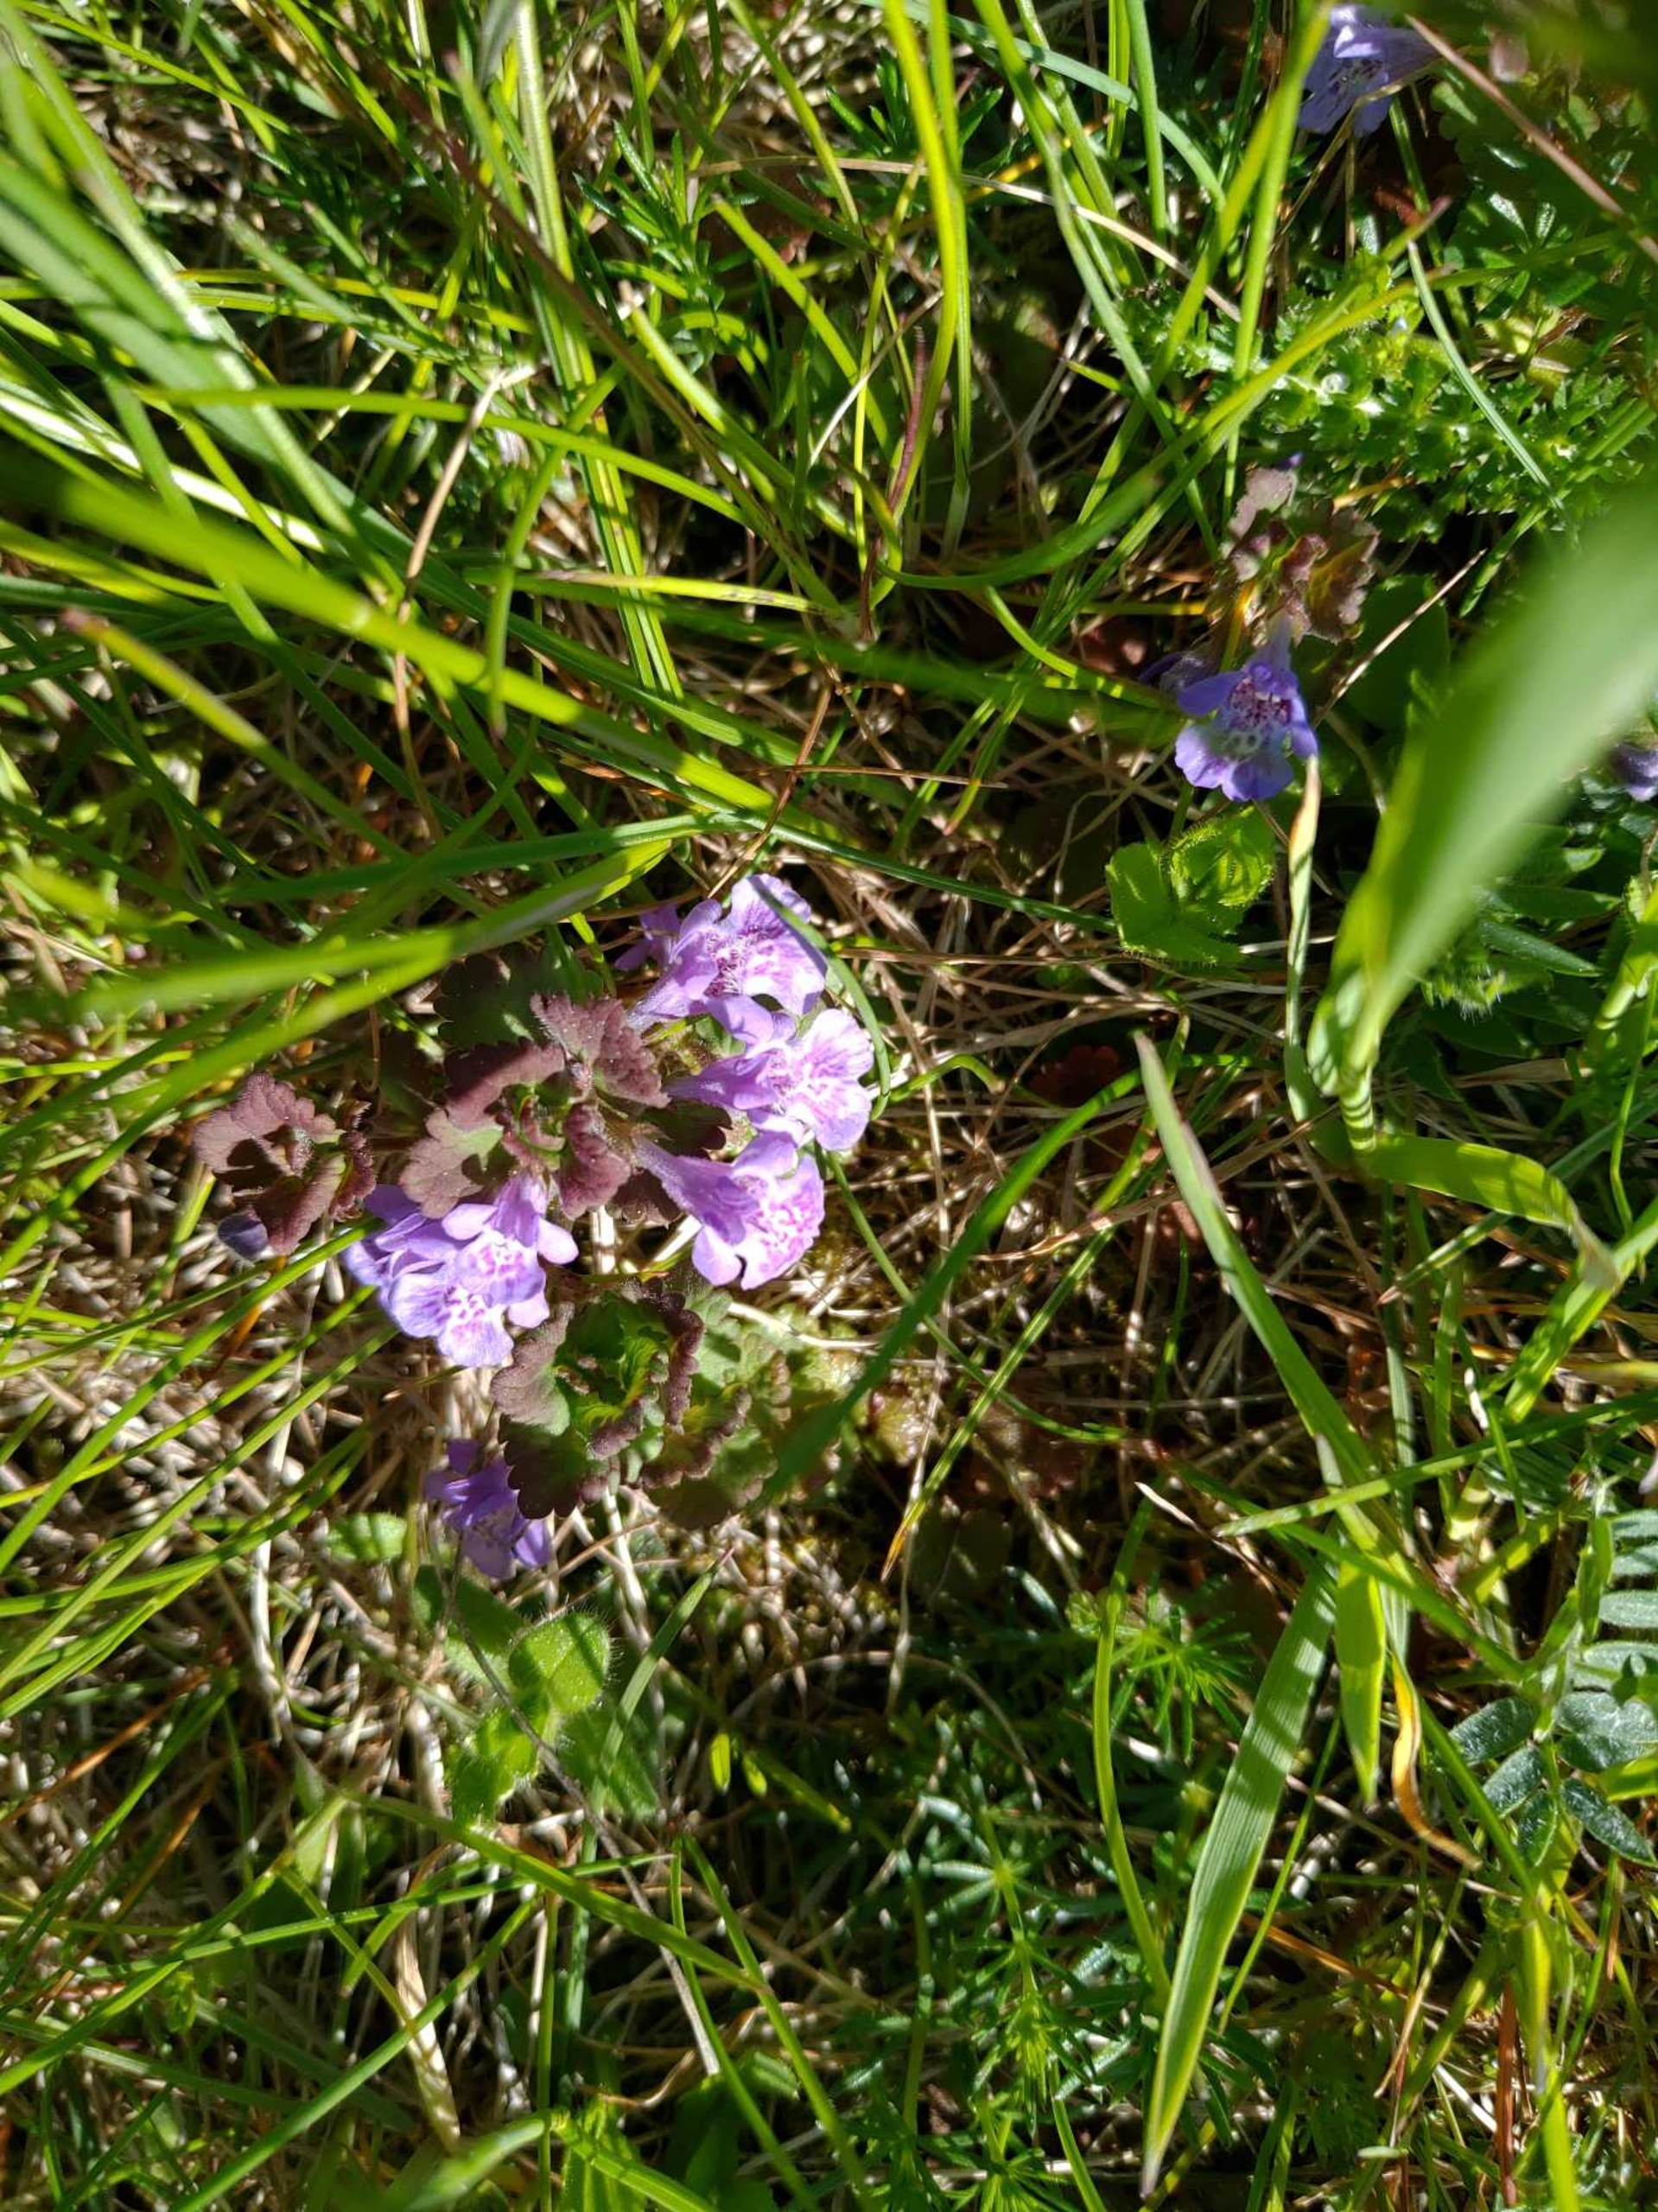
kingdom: Plantae
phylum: Tracheophyta
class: Magnoliopsida
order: Lamiales
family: Lamiaceae
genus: Glechoma
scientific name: Glechoma hederacea
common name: Korsknap
